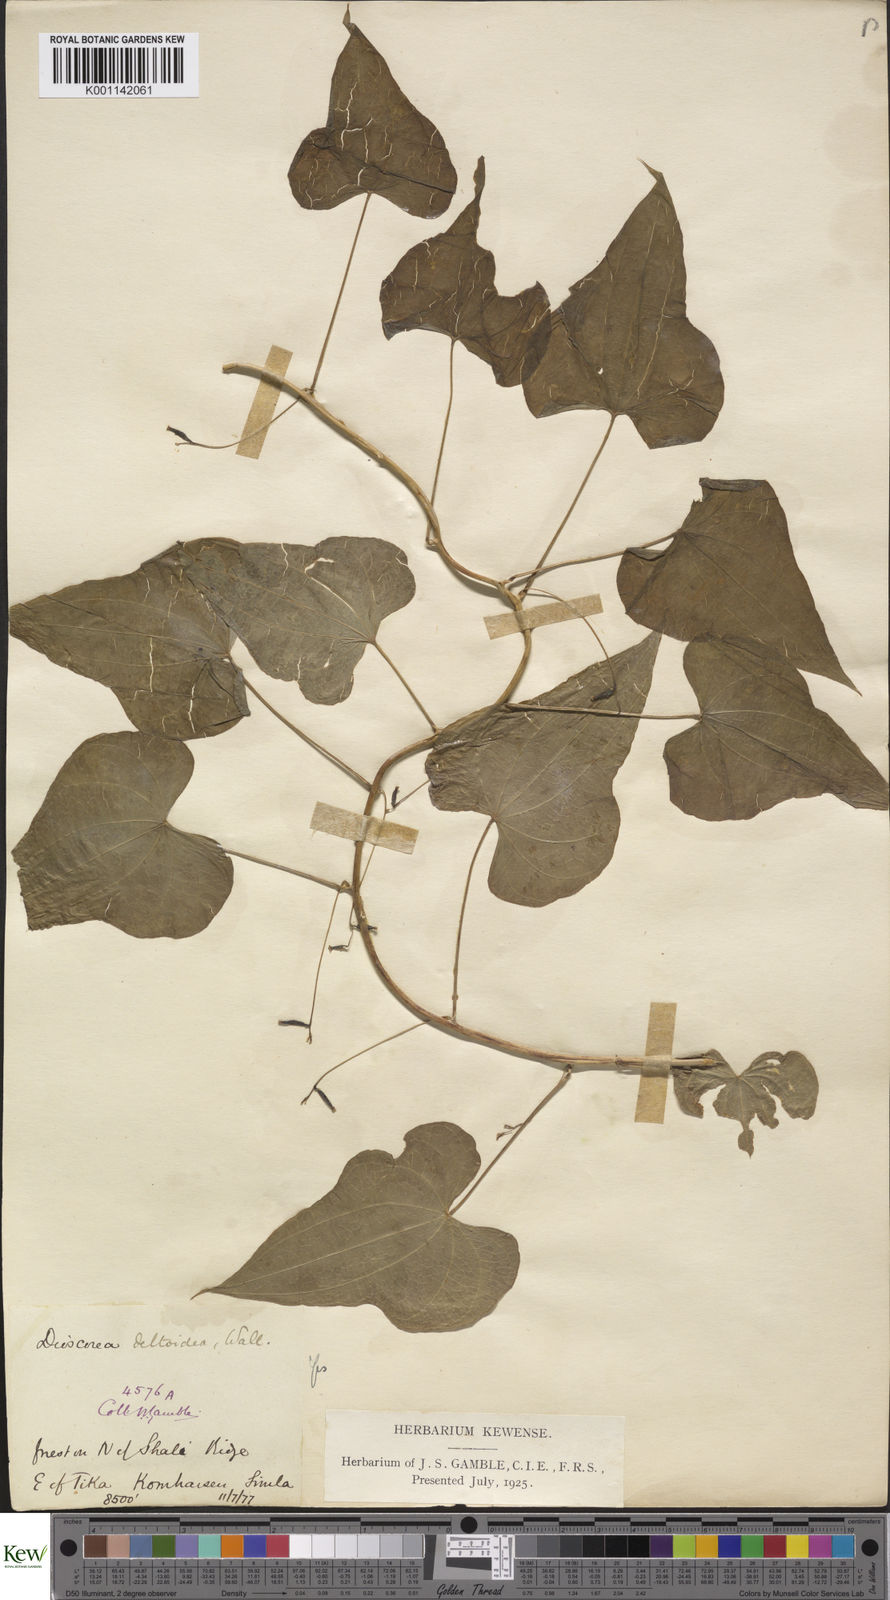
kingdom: Plantae
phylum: Tracheophyta
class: Liliopsida
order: Dioscoreales
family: Dioscoreaceae
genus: Dioscorea
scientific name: Dioscorea deltoidea
